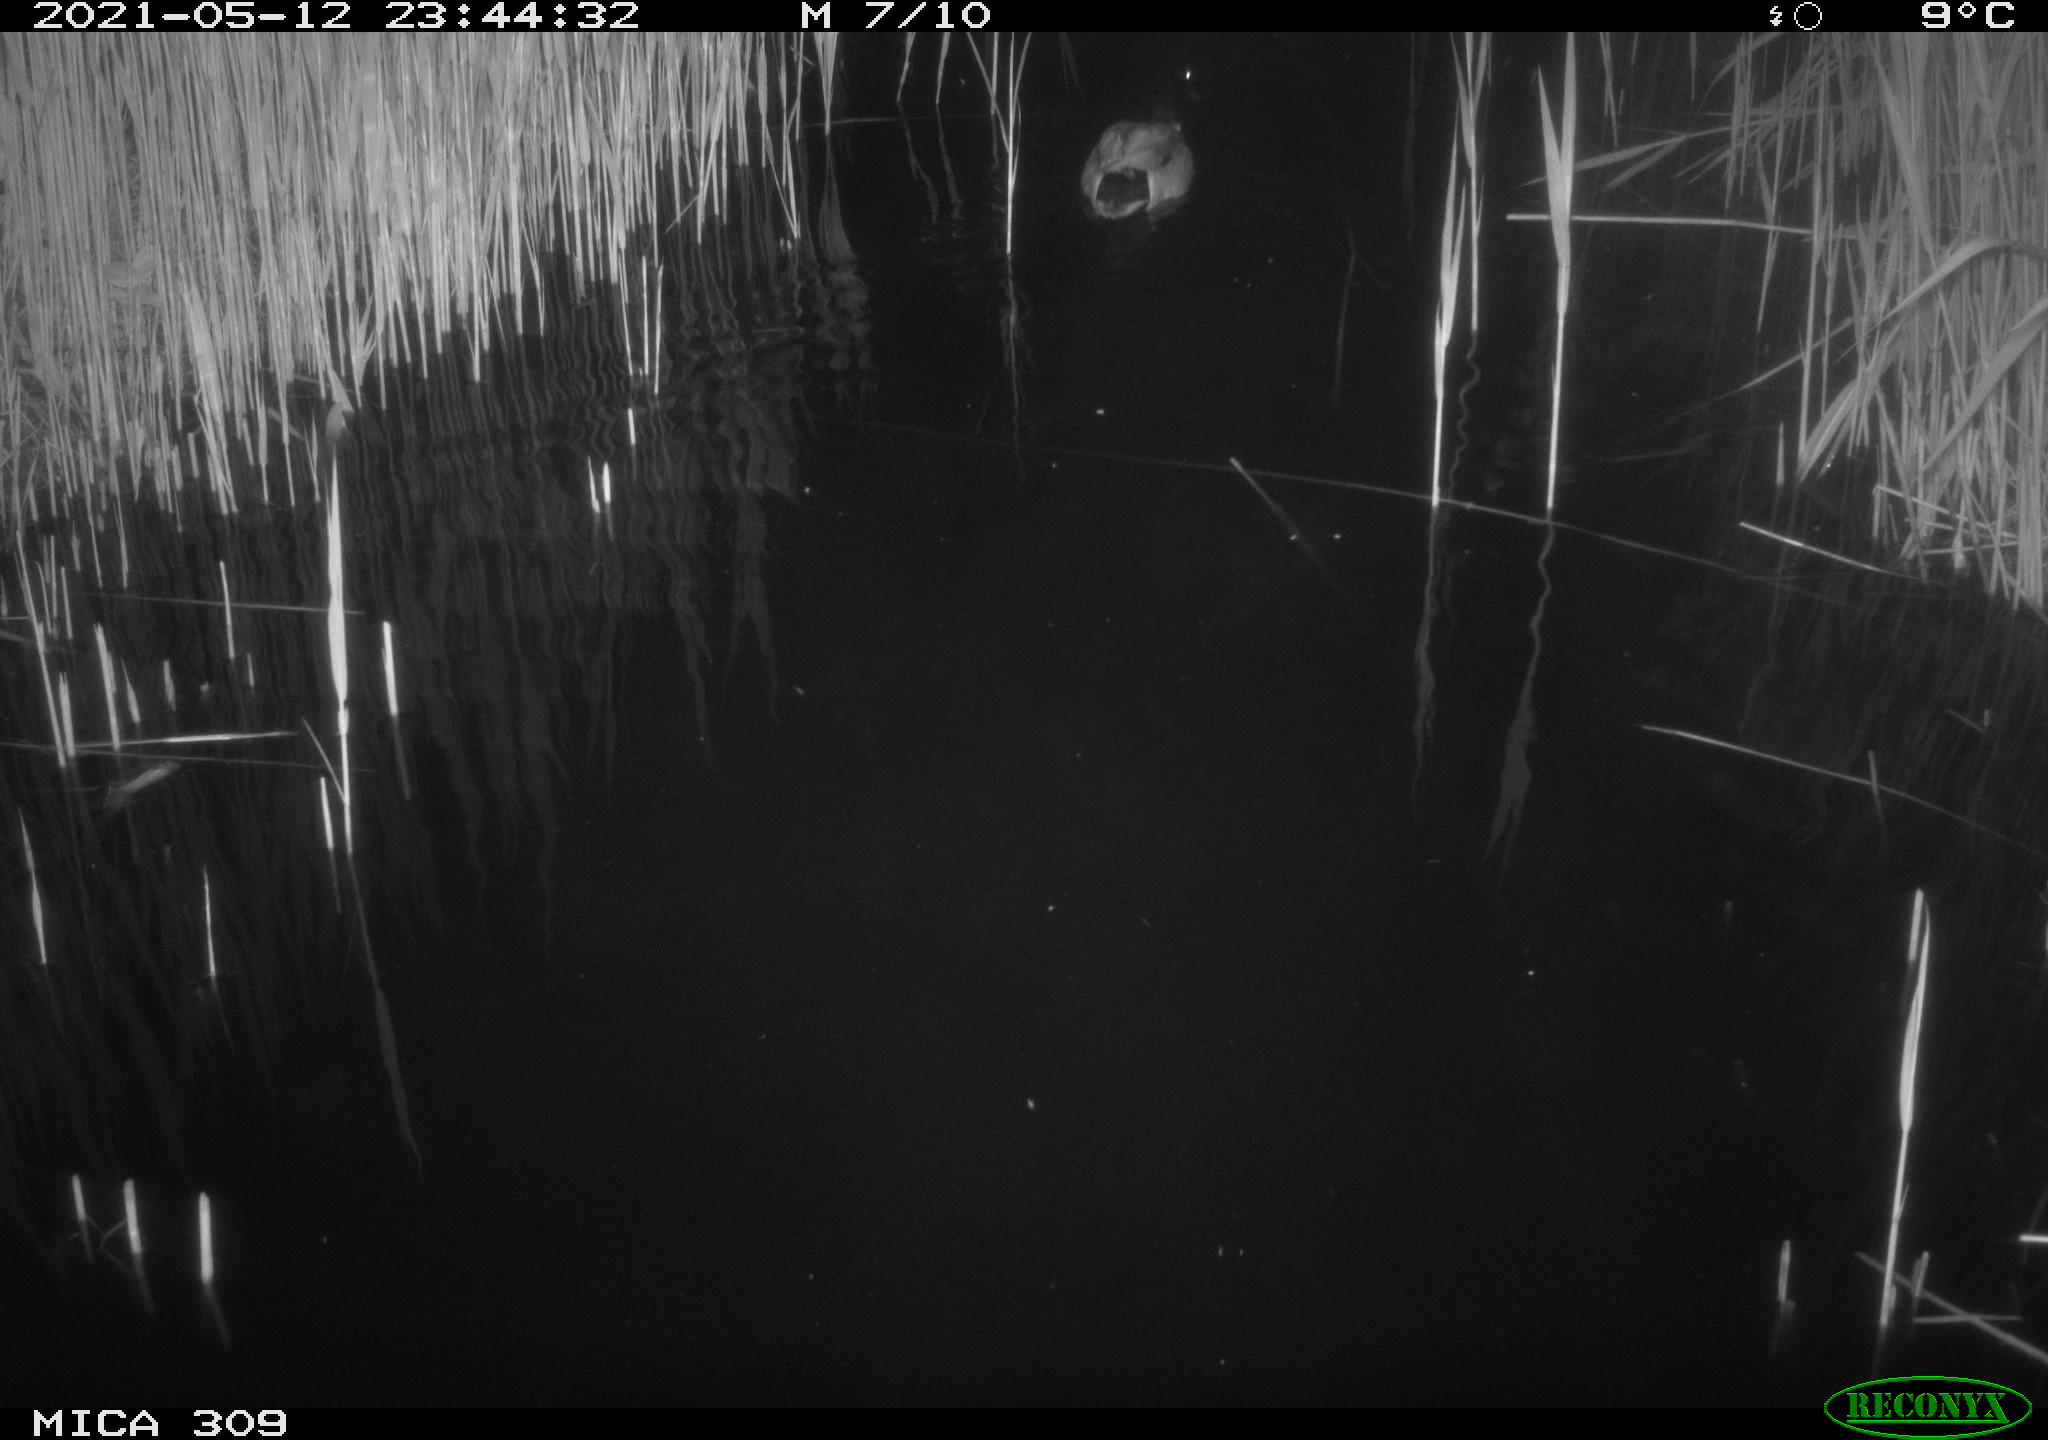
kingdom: Animalia
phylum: Chordata
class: Aves
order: Anseriformes
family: Anatidae
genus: Anas
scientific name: Anas platyrhynchos
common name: Mallard
